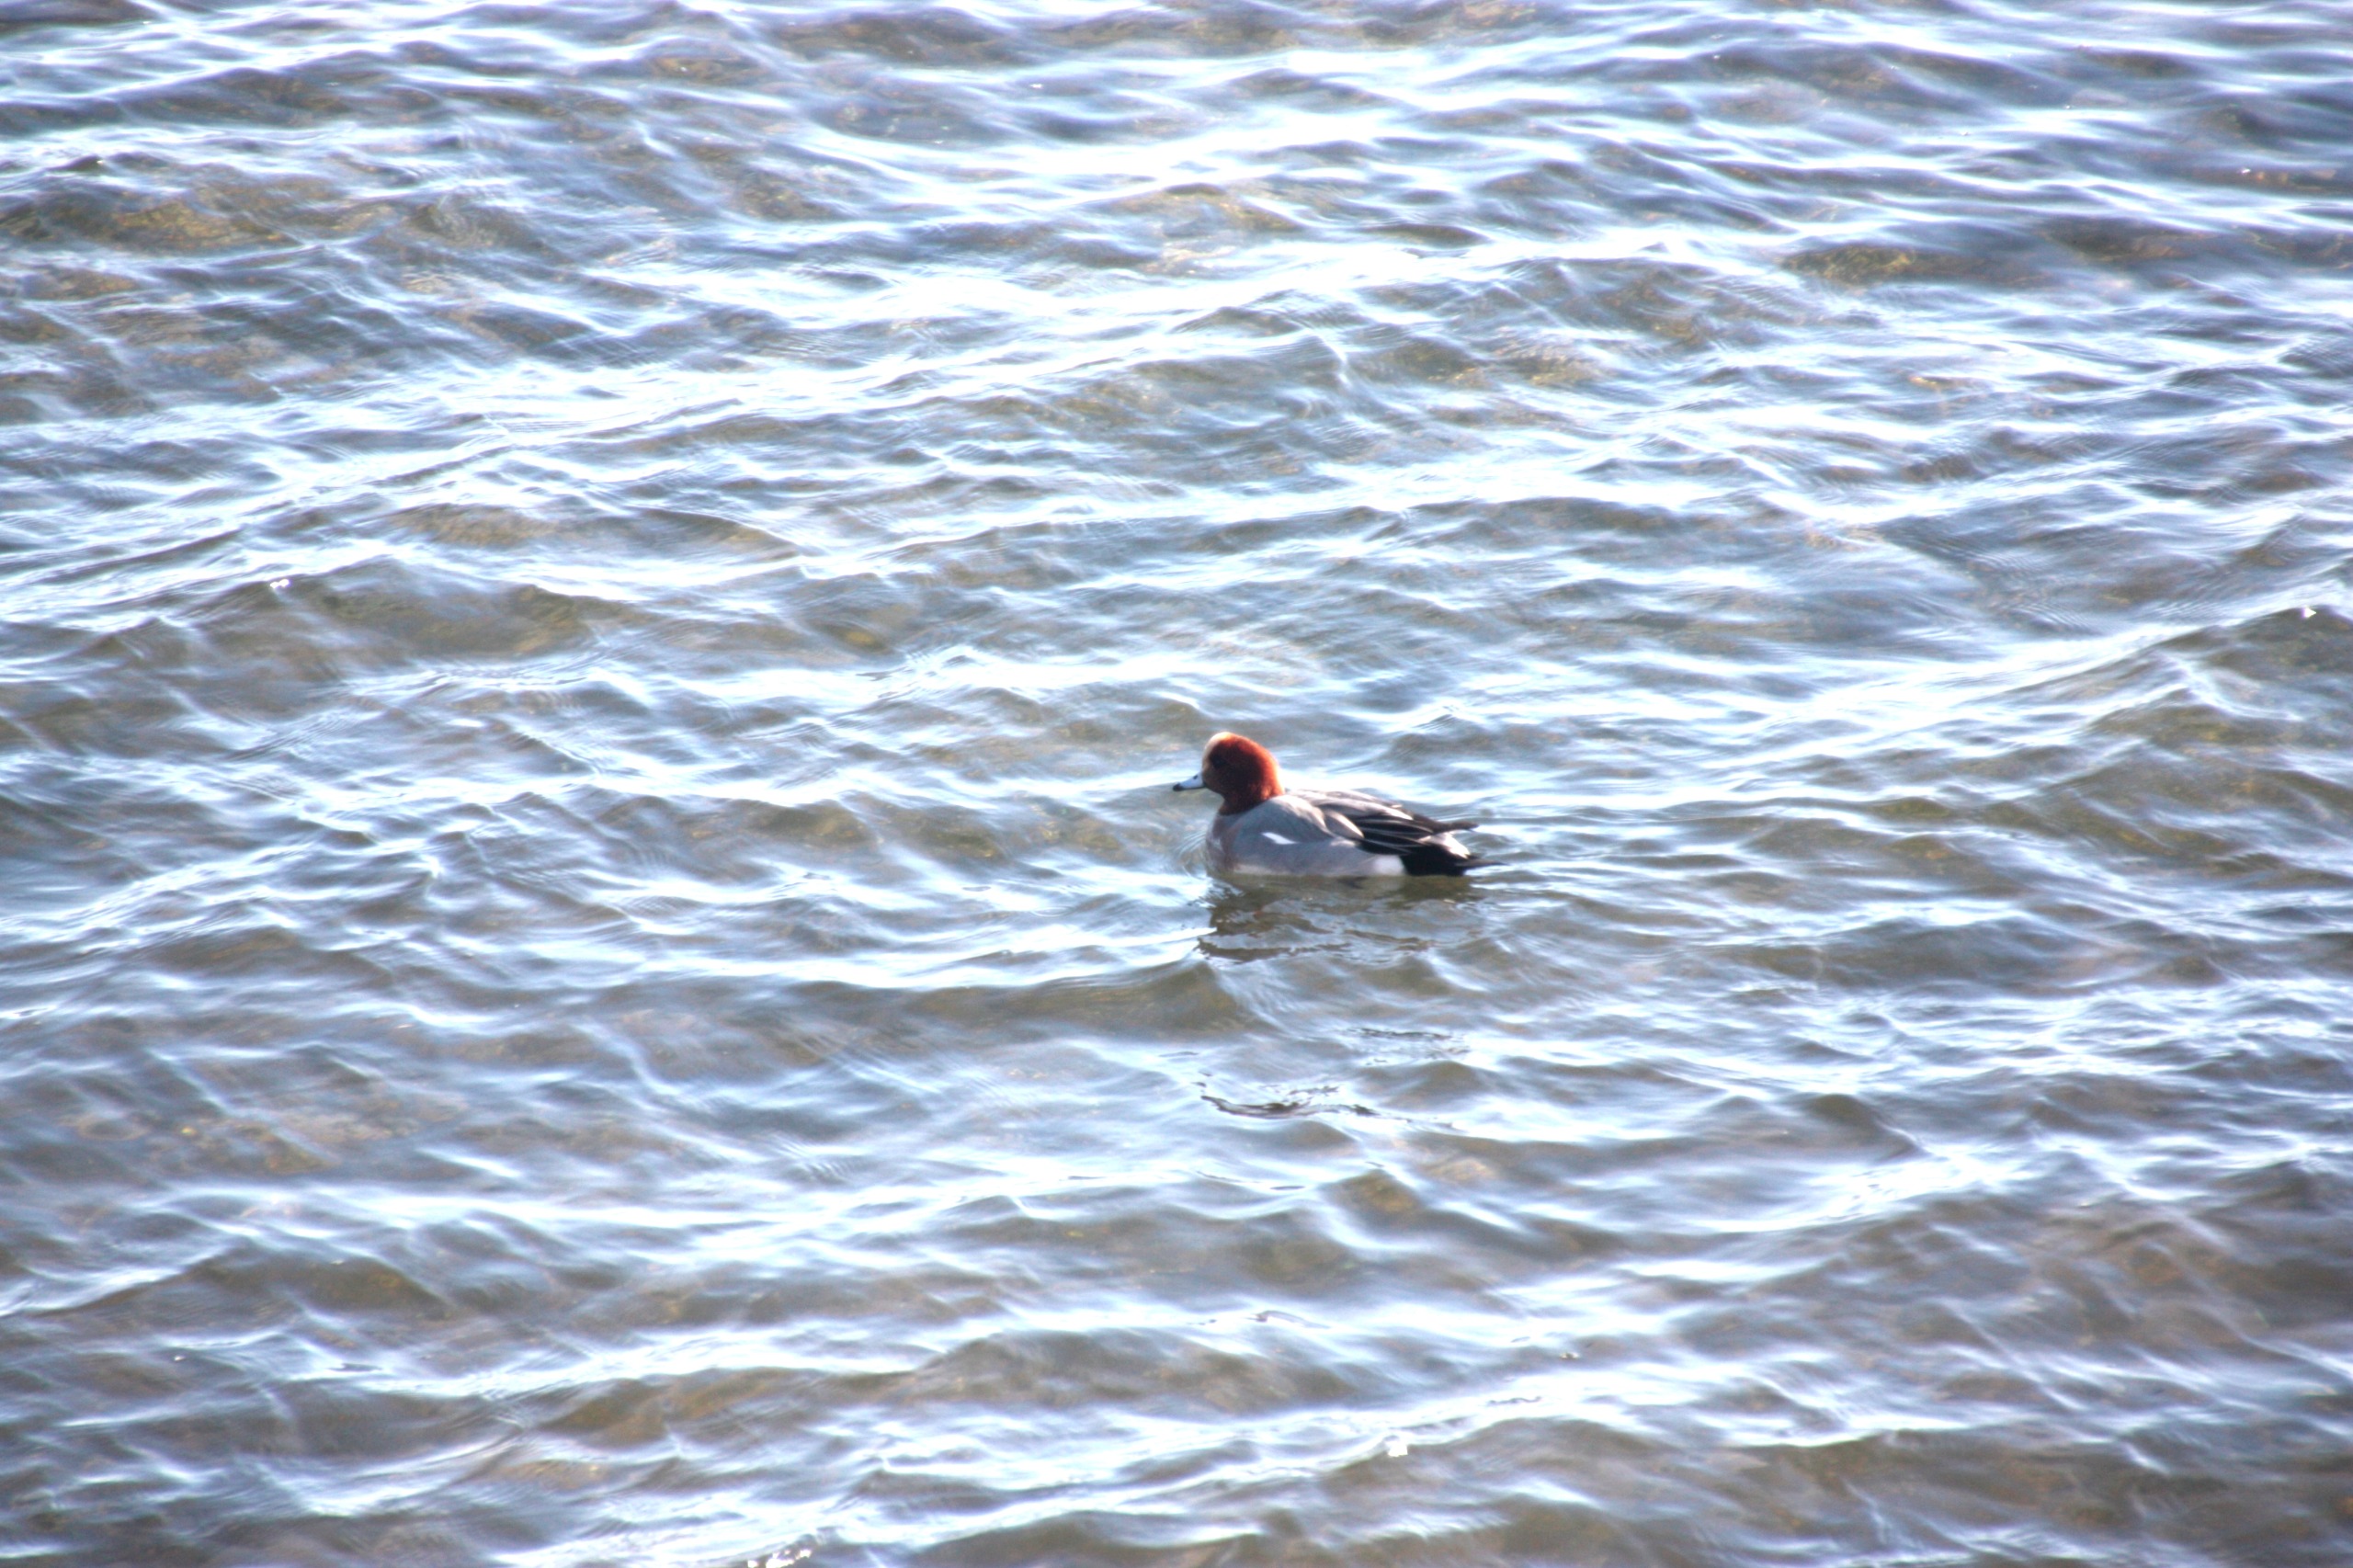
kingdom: Animalia
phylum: Chordata
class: Aves
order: Anseriformes
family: Anatidae
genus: Mareca
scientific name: Mareca penelope
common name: Pibeand
